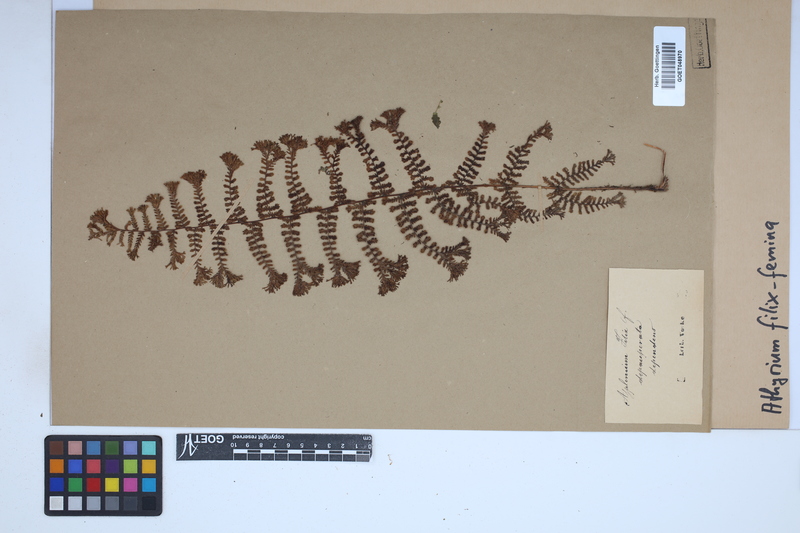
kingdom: Plantae
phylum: Tracheophyta
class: Polypodiopsida
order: Polypodiales
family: Athyriaceae
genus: Athyrium
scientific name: Athyrium filix-femina
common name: Lady fern
